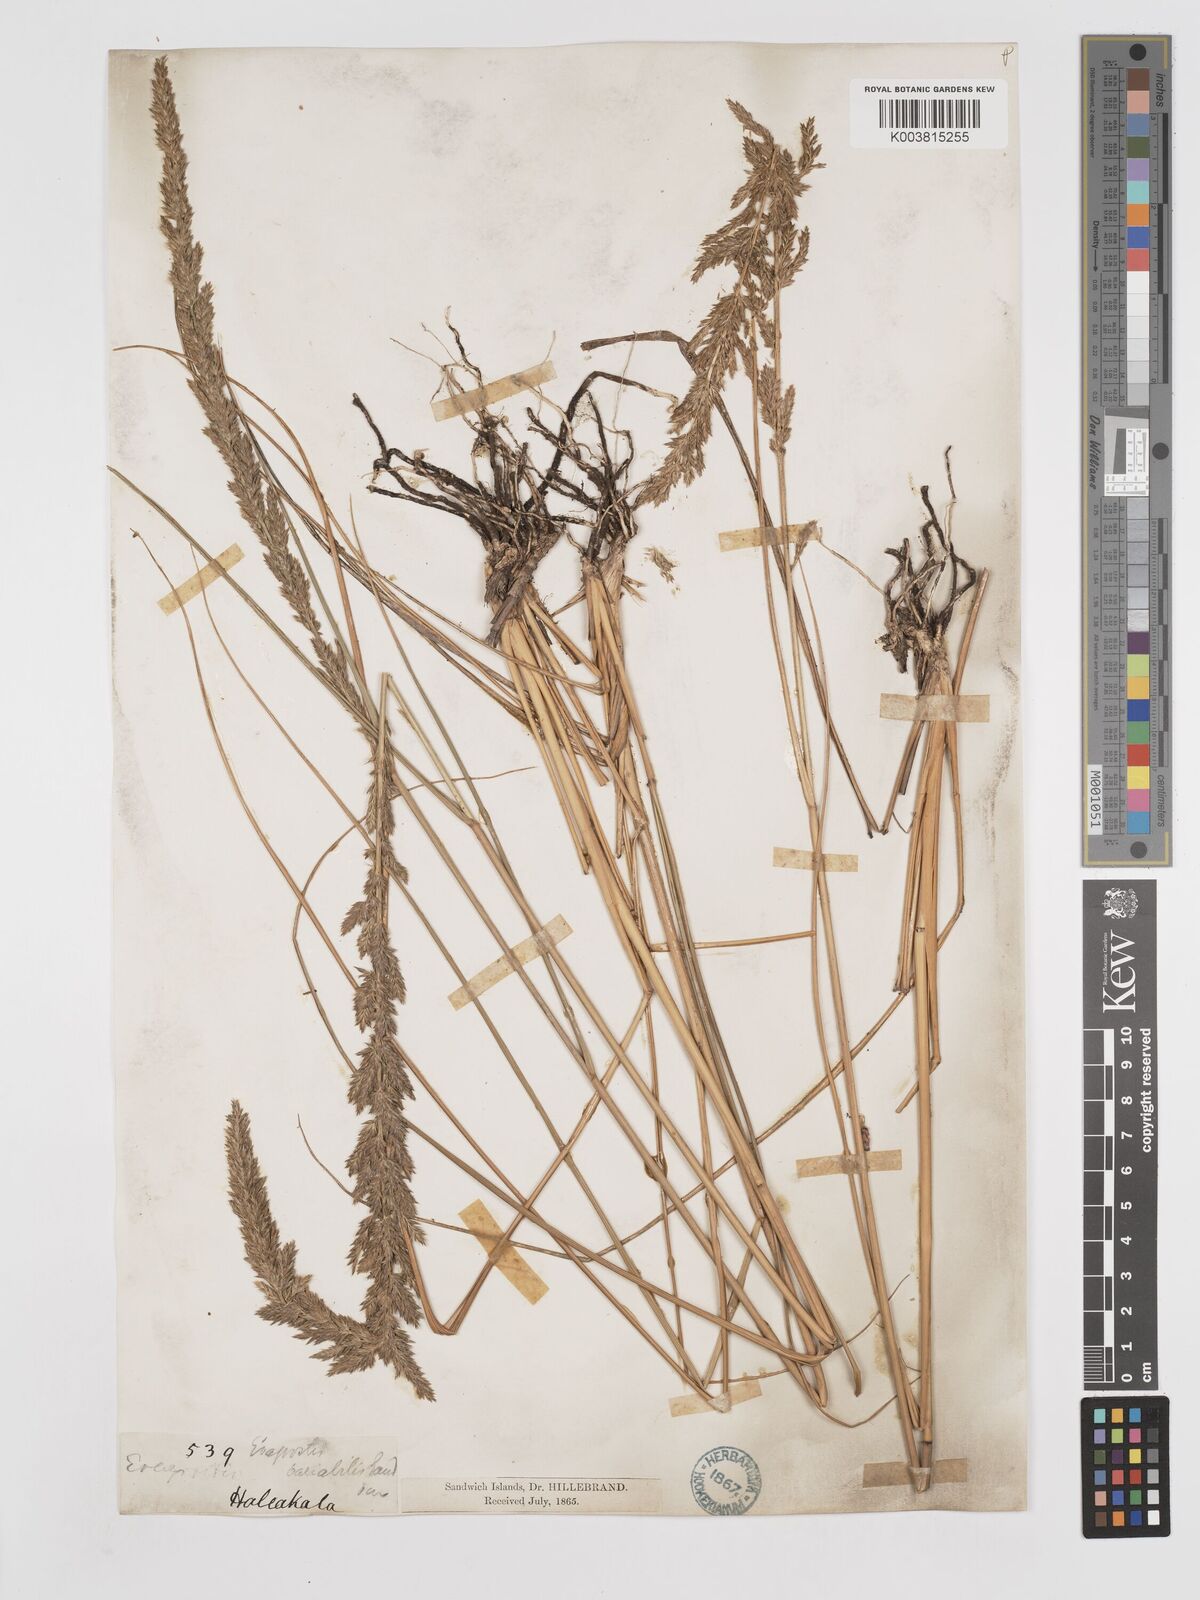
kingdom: Plantae
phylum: Tracheophyta
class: Liliopsida
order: Poales
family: Poaceae
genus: Eragrostis
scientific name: Eragrostis variabilis
